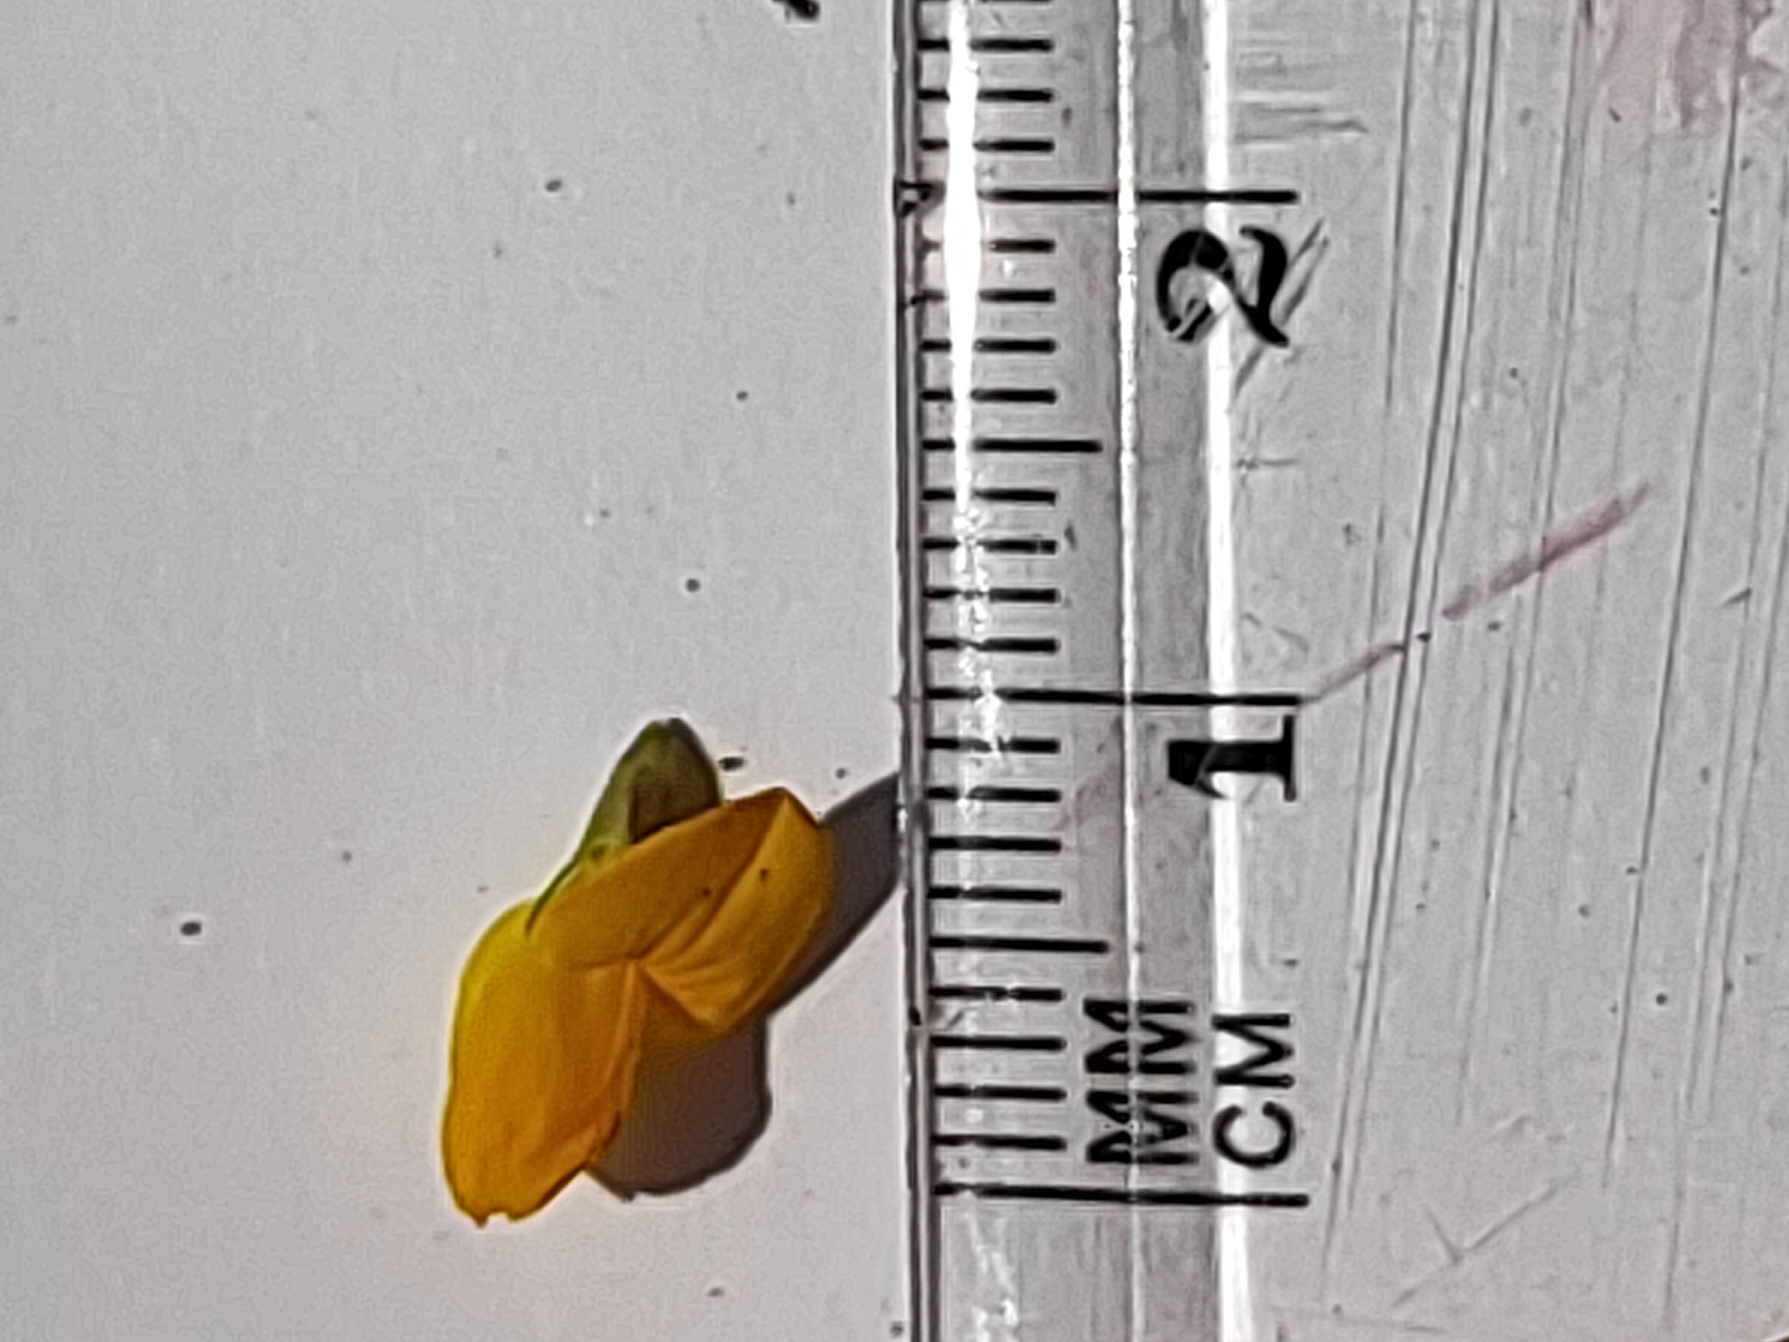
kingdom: Plantae
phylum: Tracheophyta
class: Magnoliopsida
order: Fabales
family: Fabaceae
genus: Lotus
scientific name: Lotus tenuis
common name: Smalbladet kællingetand
